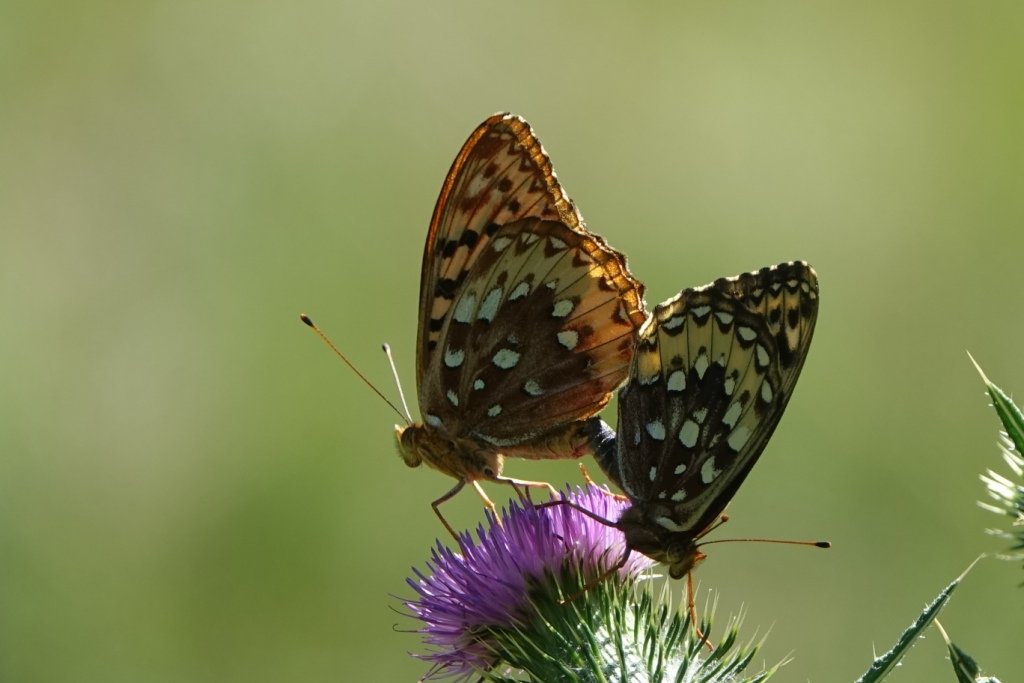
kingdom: Animalia
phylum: Arthropoda
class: Insecta
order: Lepidoptera
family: Nymphalidae
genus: Speyeria
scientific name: Speyeria cybele
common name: Great Spangled Fritillary
